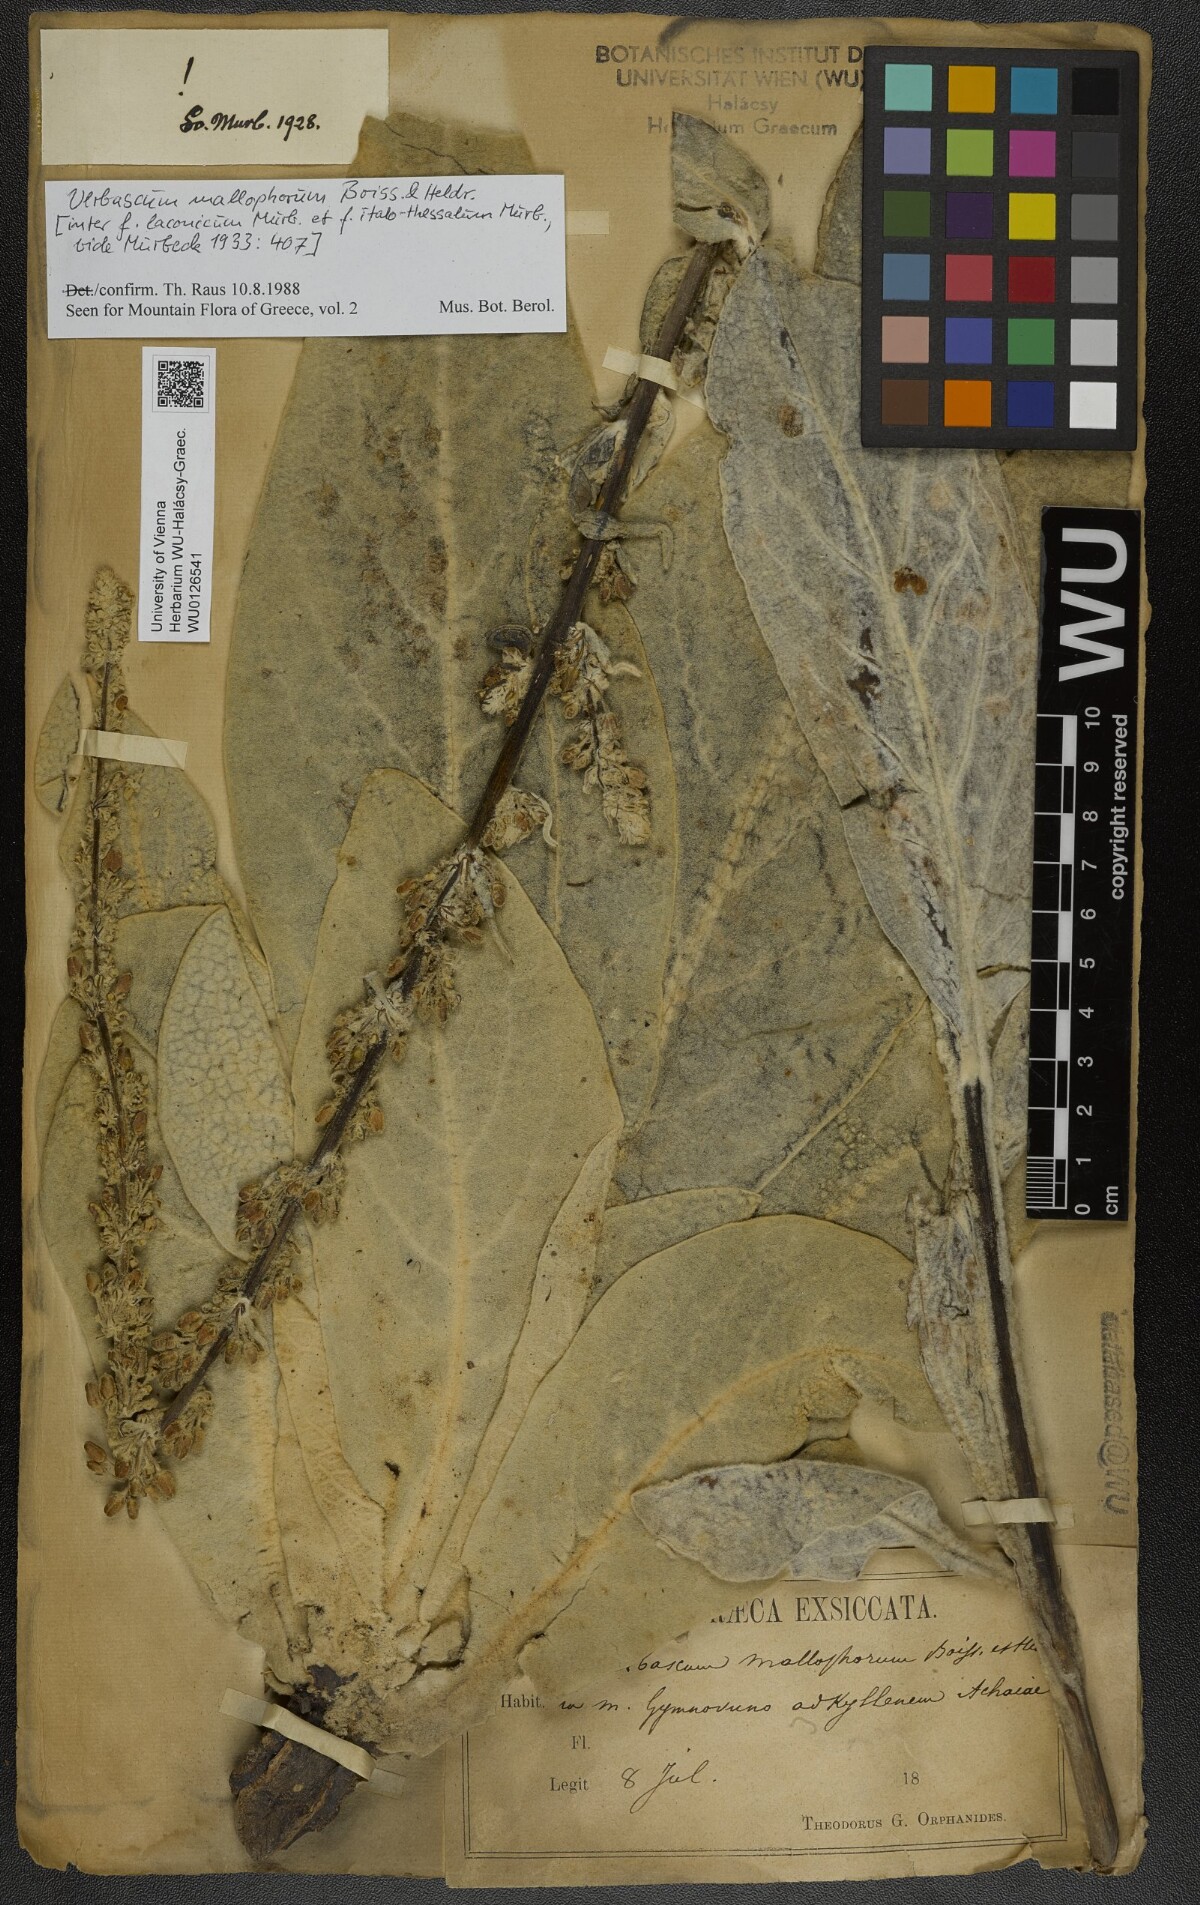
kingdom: Plantae
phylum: Tracheophyta
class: Magnoliopsida
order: Lamiales
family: Scrophulariaceae
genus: Verbascum
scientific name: Verbascum mallophorum
